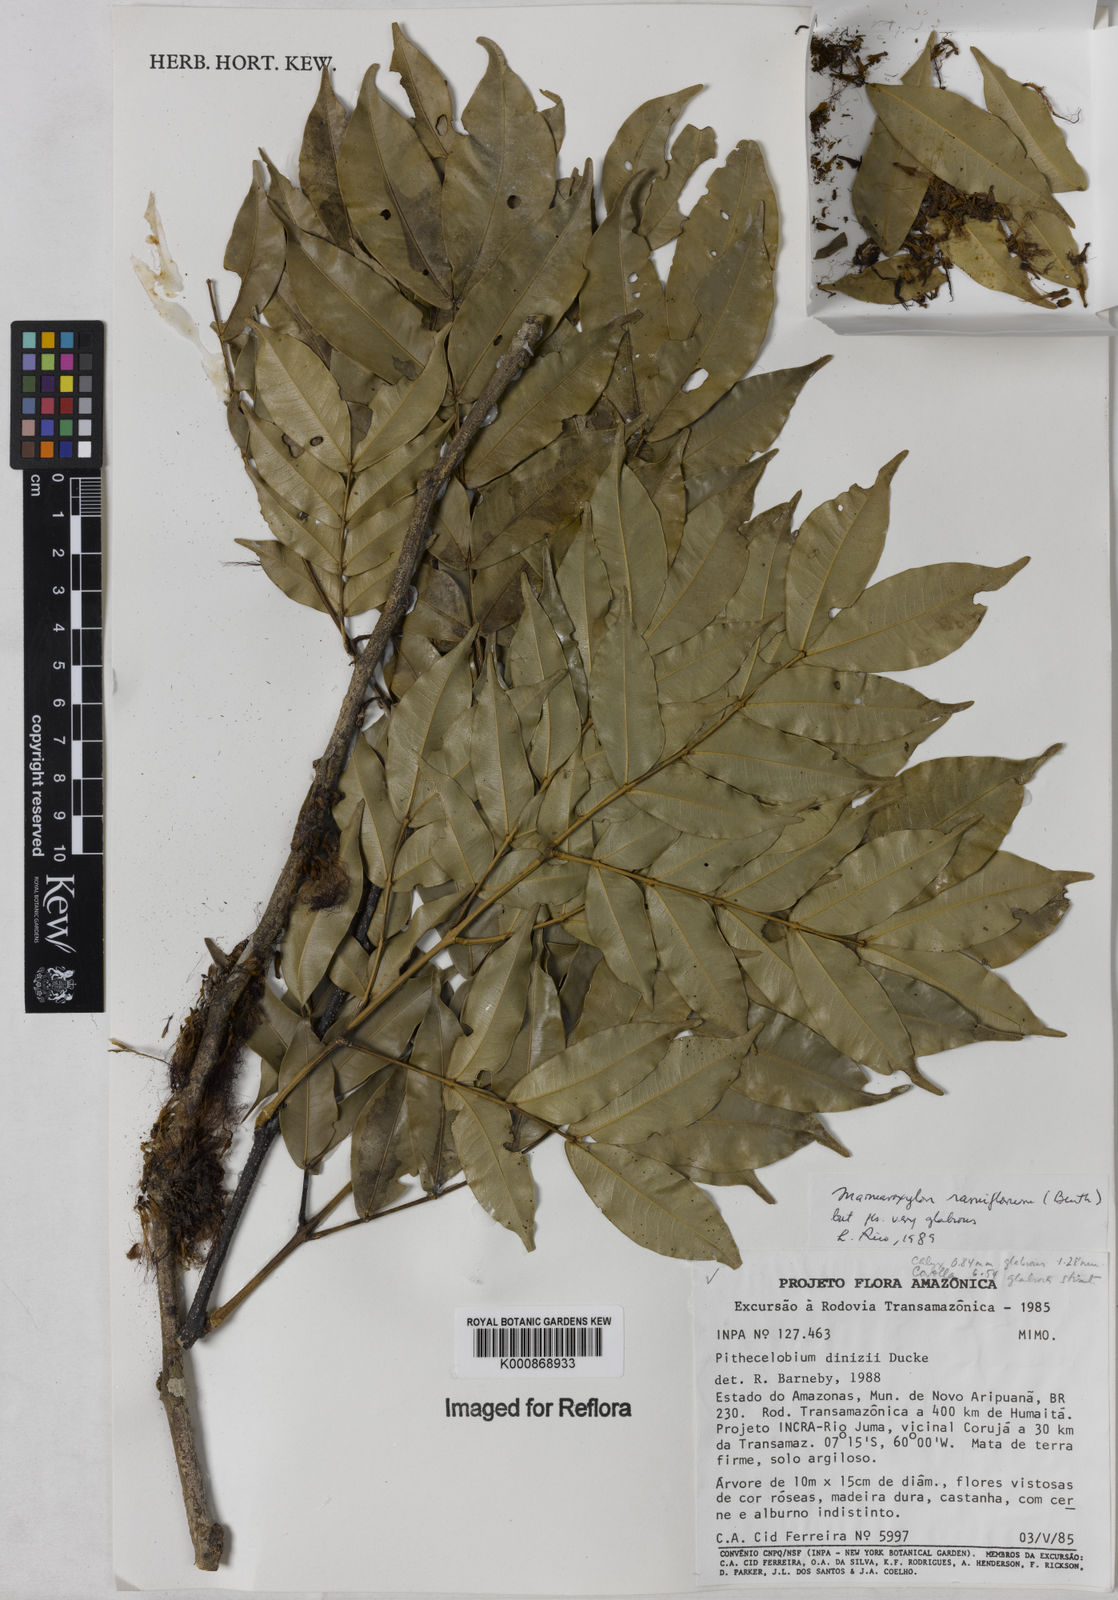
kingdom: Plantae
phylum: Tracheophyta
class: Magnoliopsida
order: Fabales
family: Fabaceae
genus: Zygia
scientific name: Zygia dinizii
